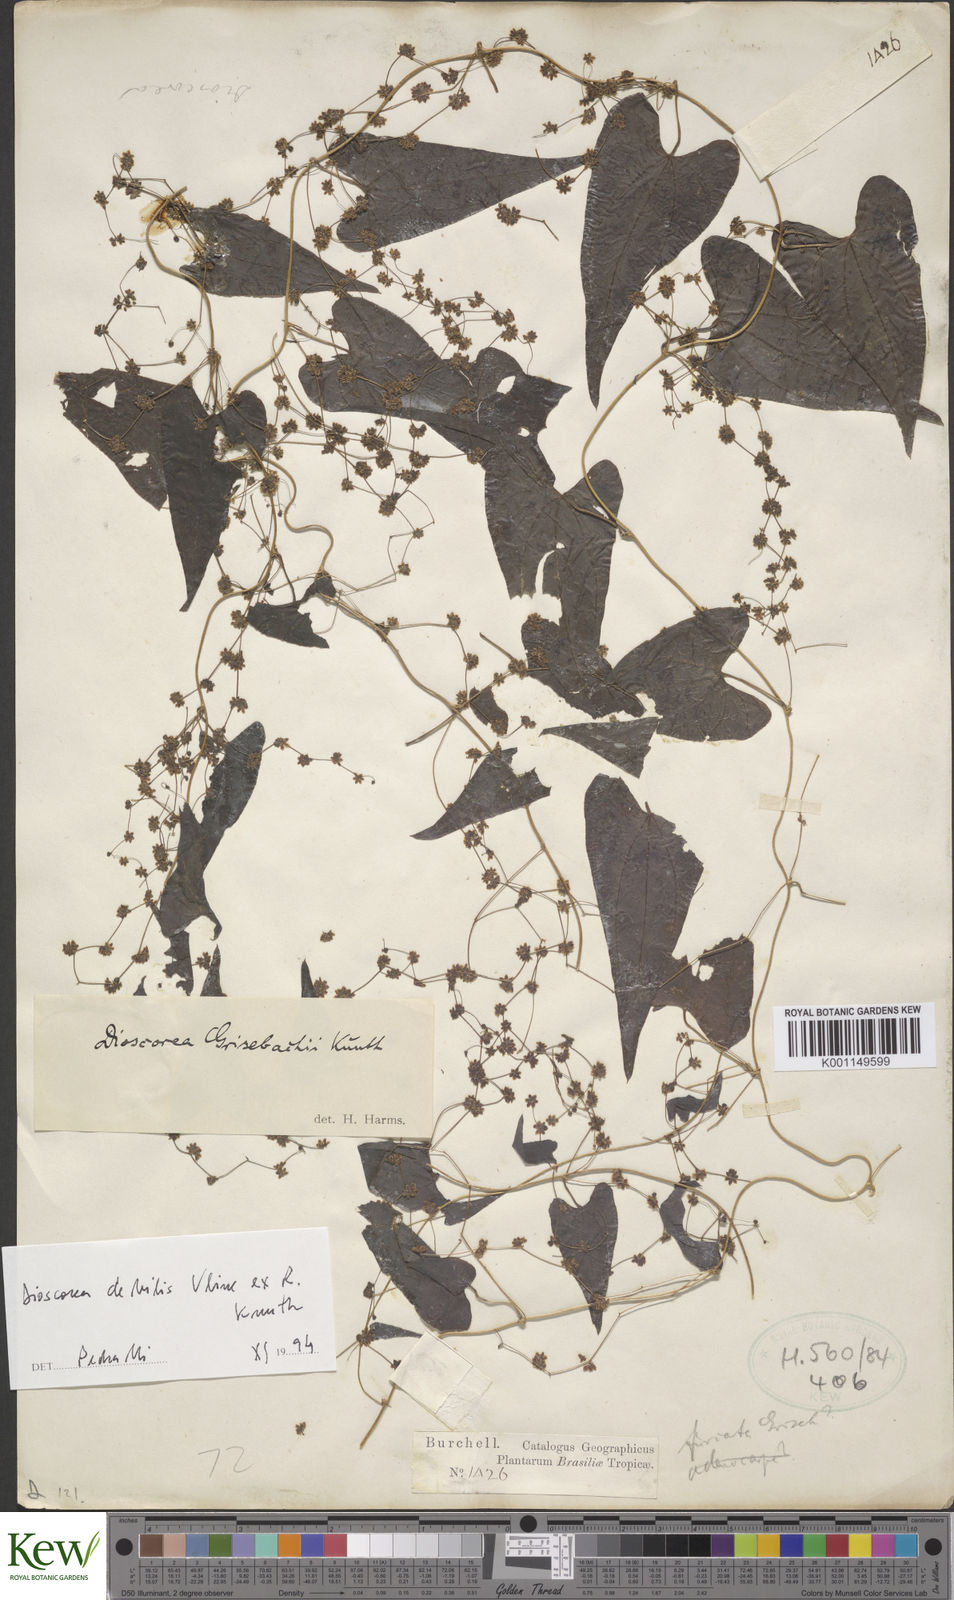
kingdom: Plantae
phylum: Tracheophyta
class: Liliopsida
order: Dioscoreales
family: Dioscoreaceae
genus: Dioscorea
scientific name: Dioscorea grisebachii
